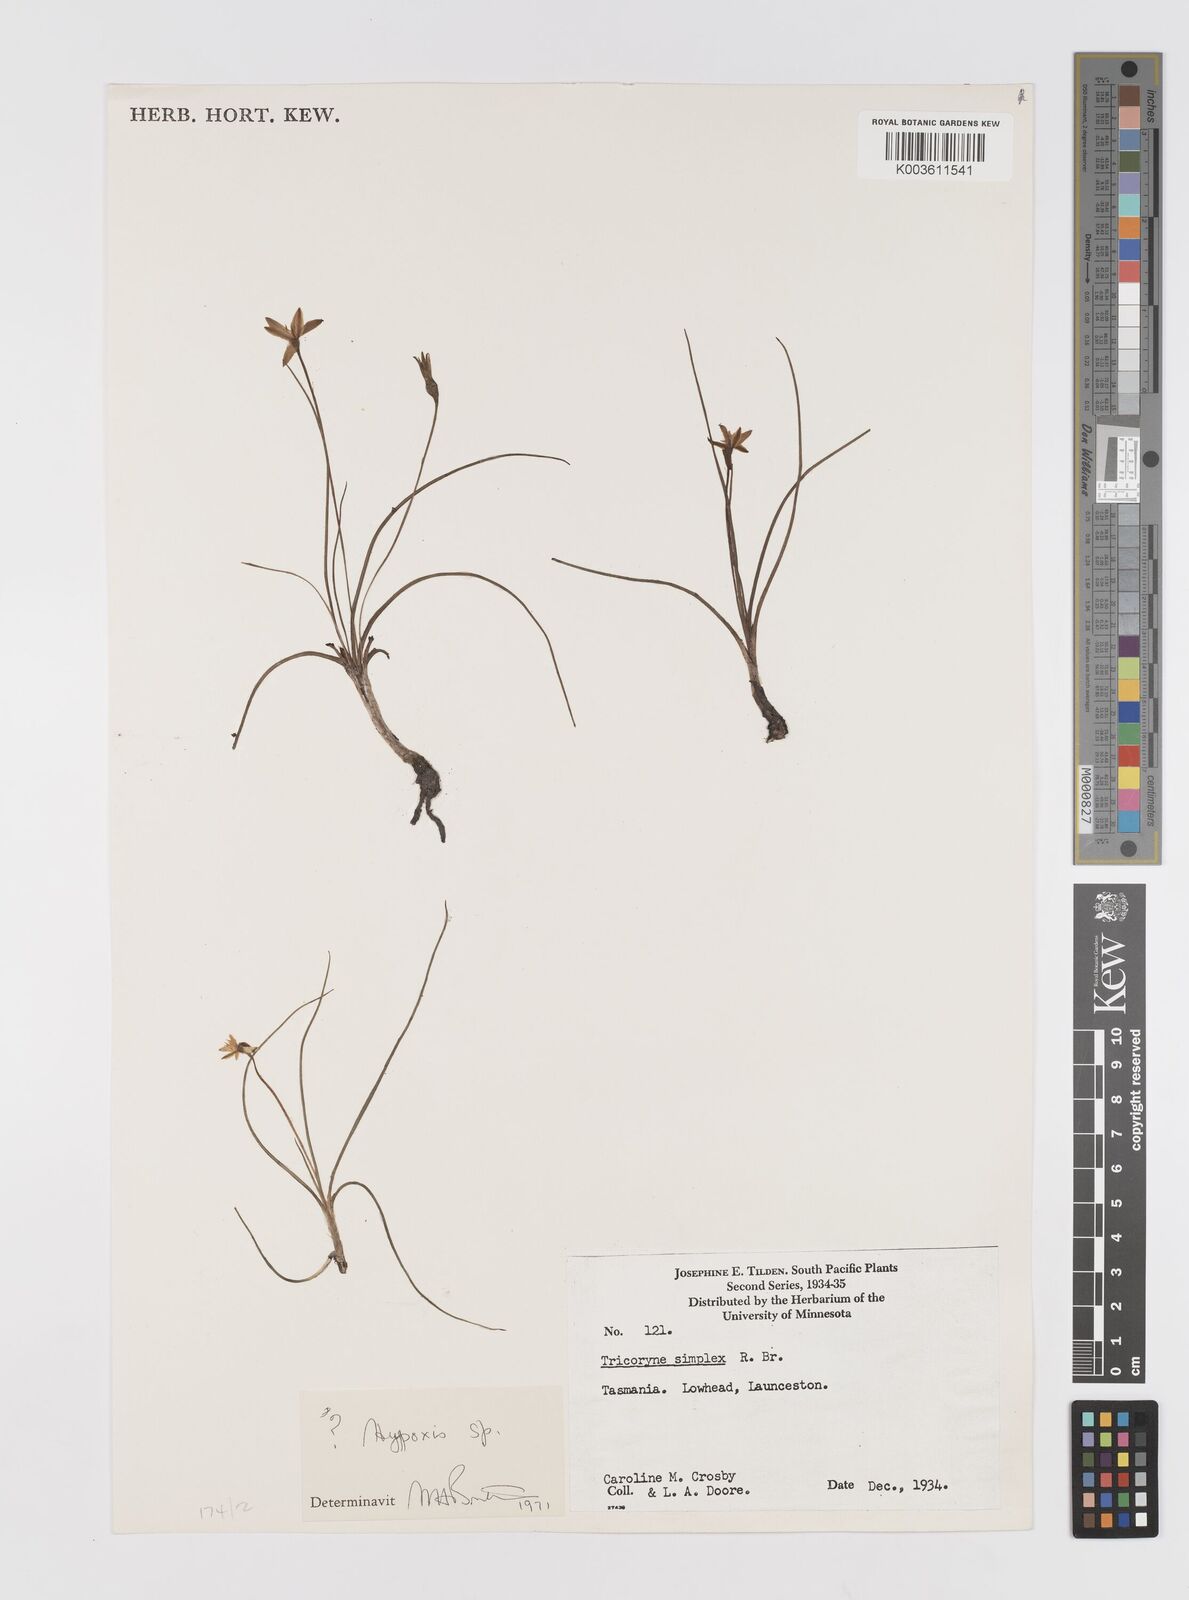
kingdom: Plantae
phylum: Tracheophyta
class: Liliopsida
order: Asparagales
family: Hypoxidaceae
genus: Hypoxis
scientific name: Hypoxis
